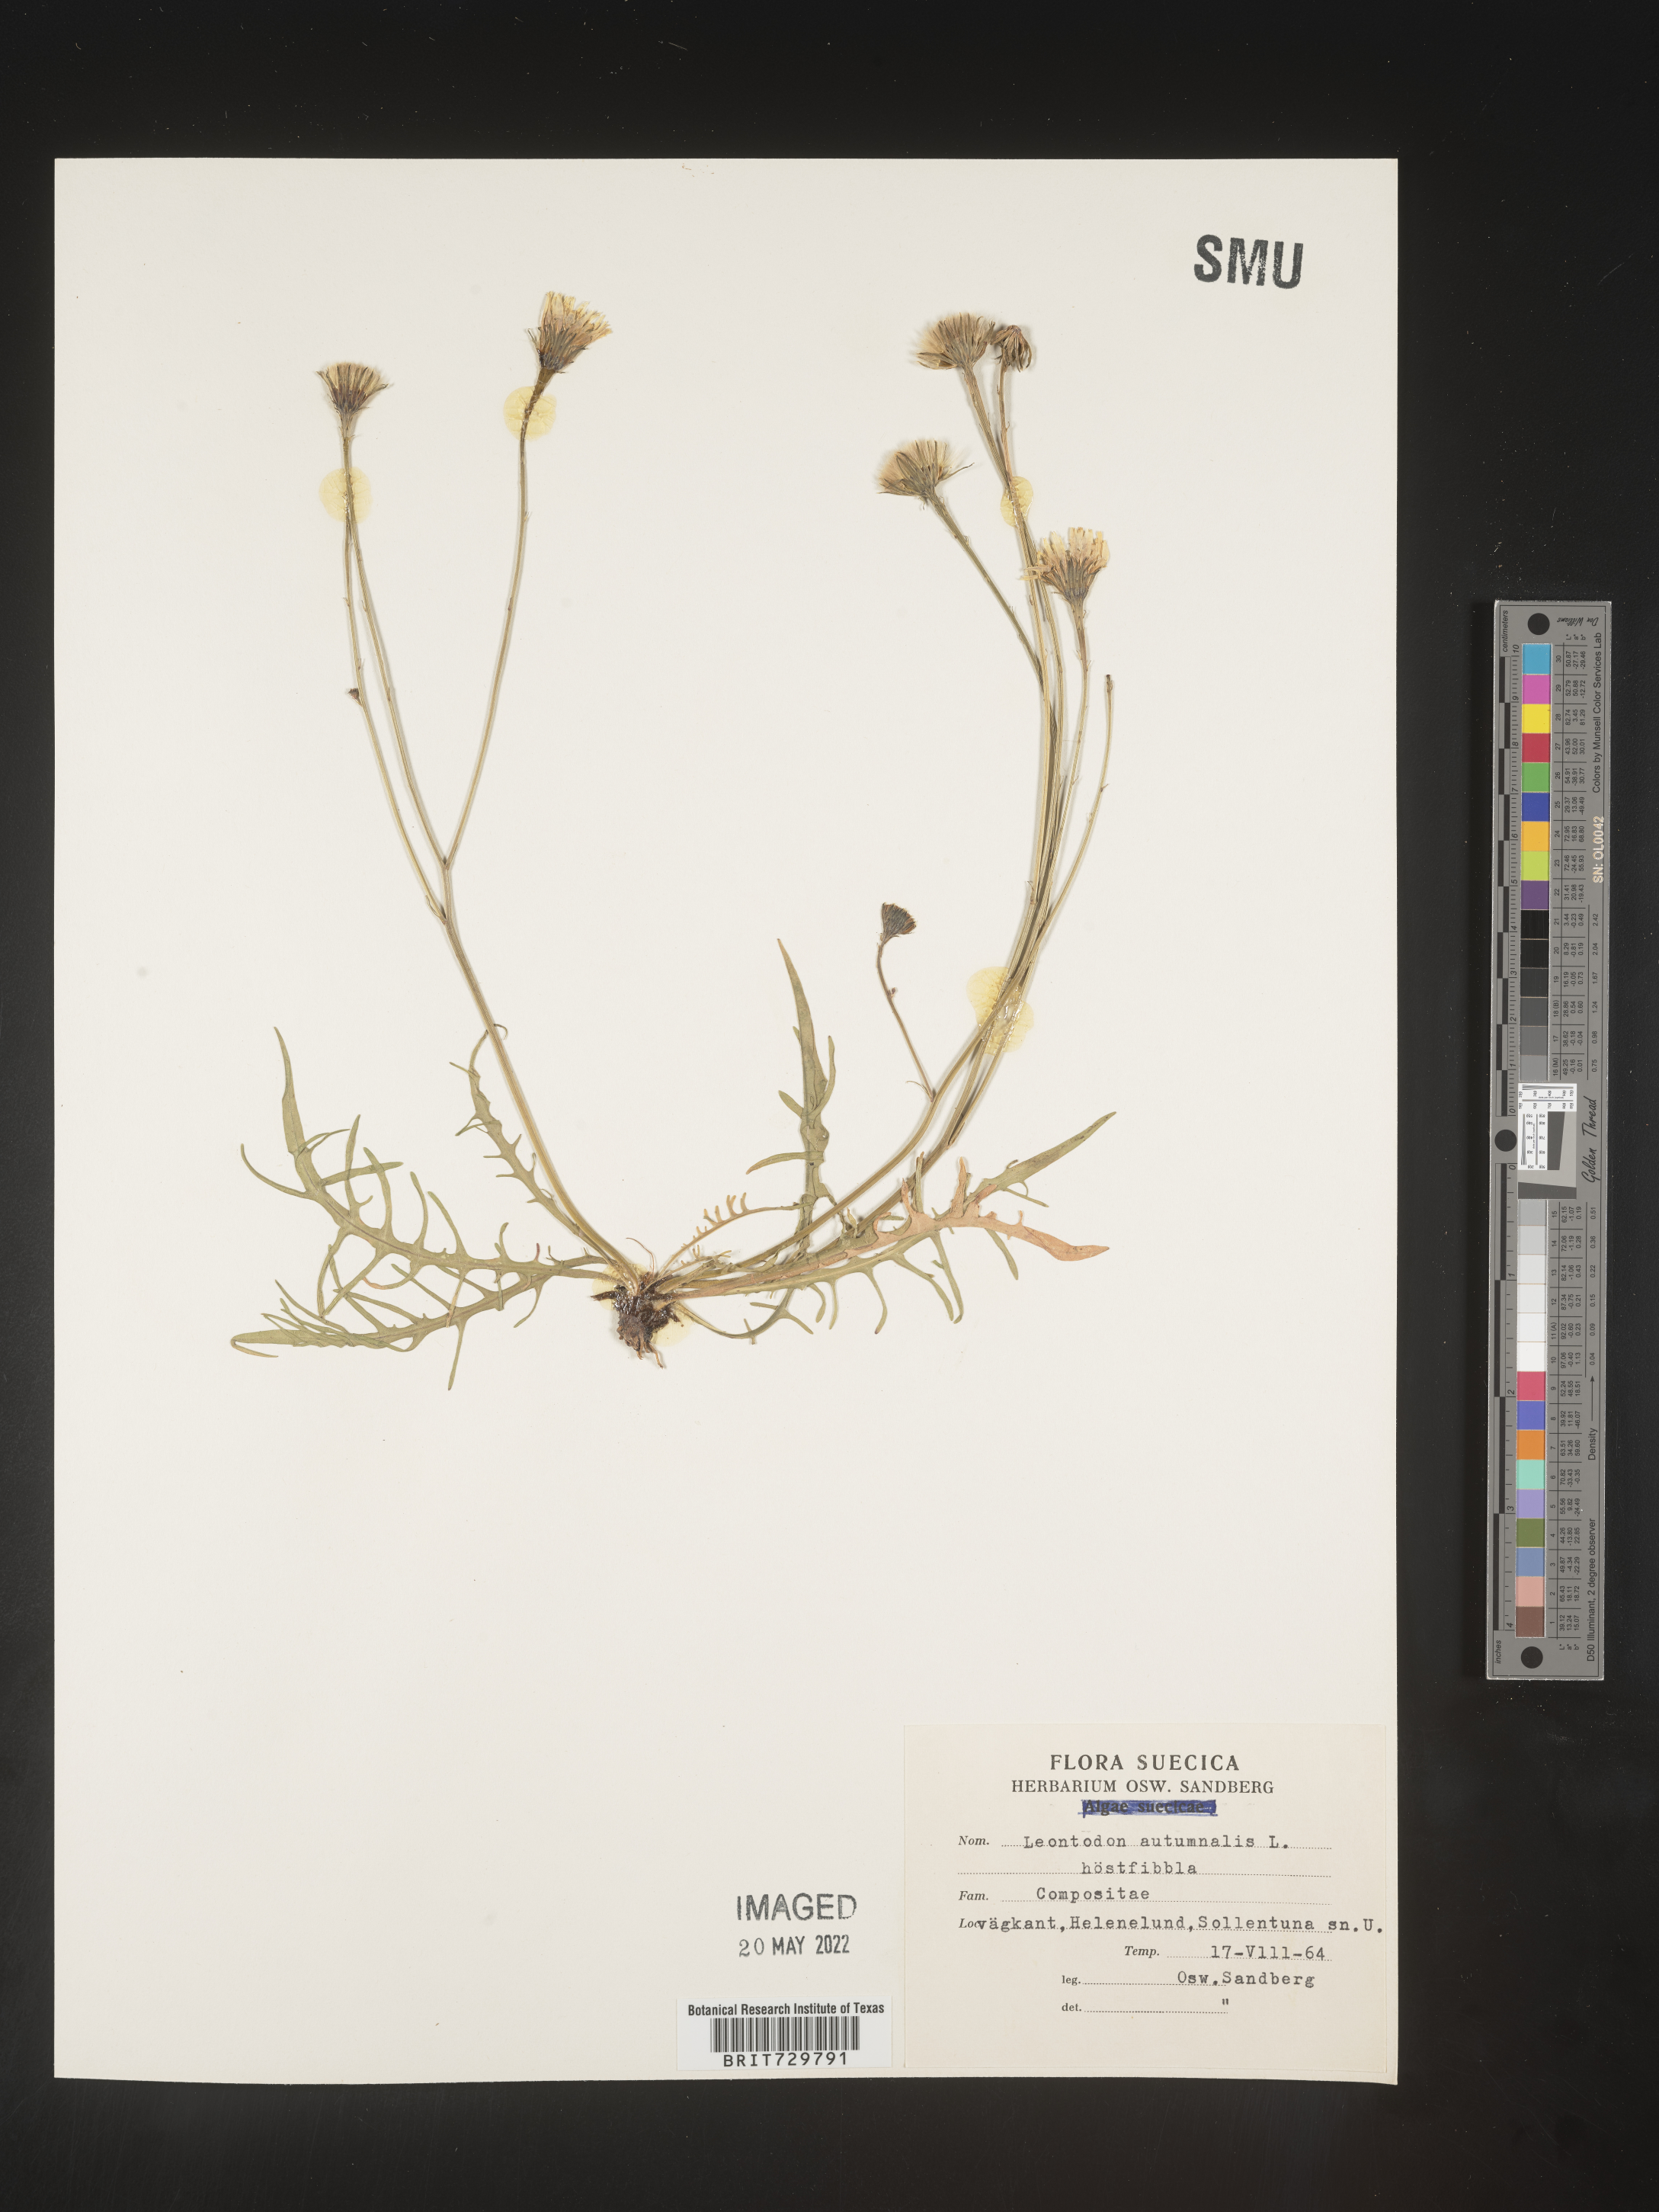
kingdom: Plantae
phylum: Tracheophyta
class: Magnoliopsida
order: Asterales
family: Asteraceae
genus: Leontodon
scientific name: Leontodon
